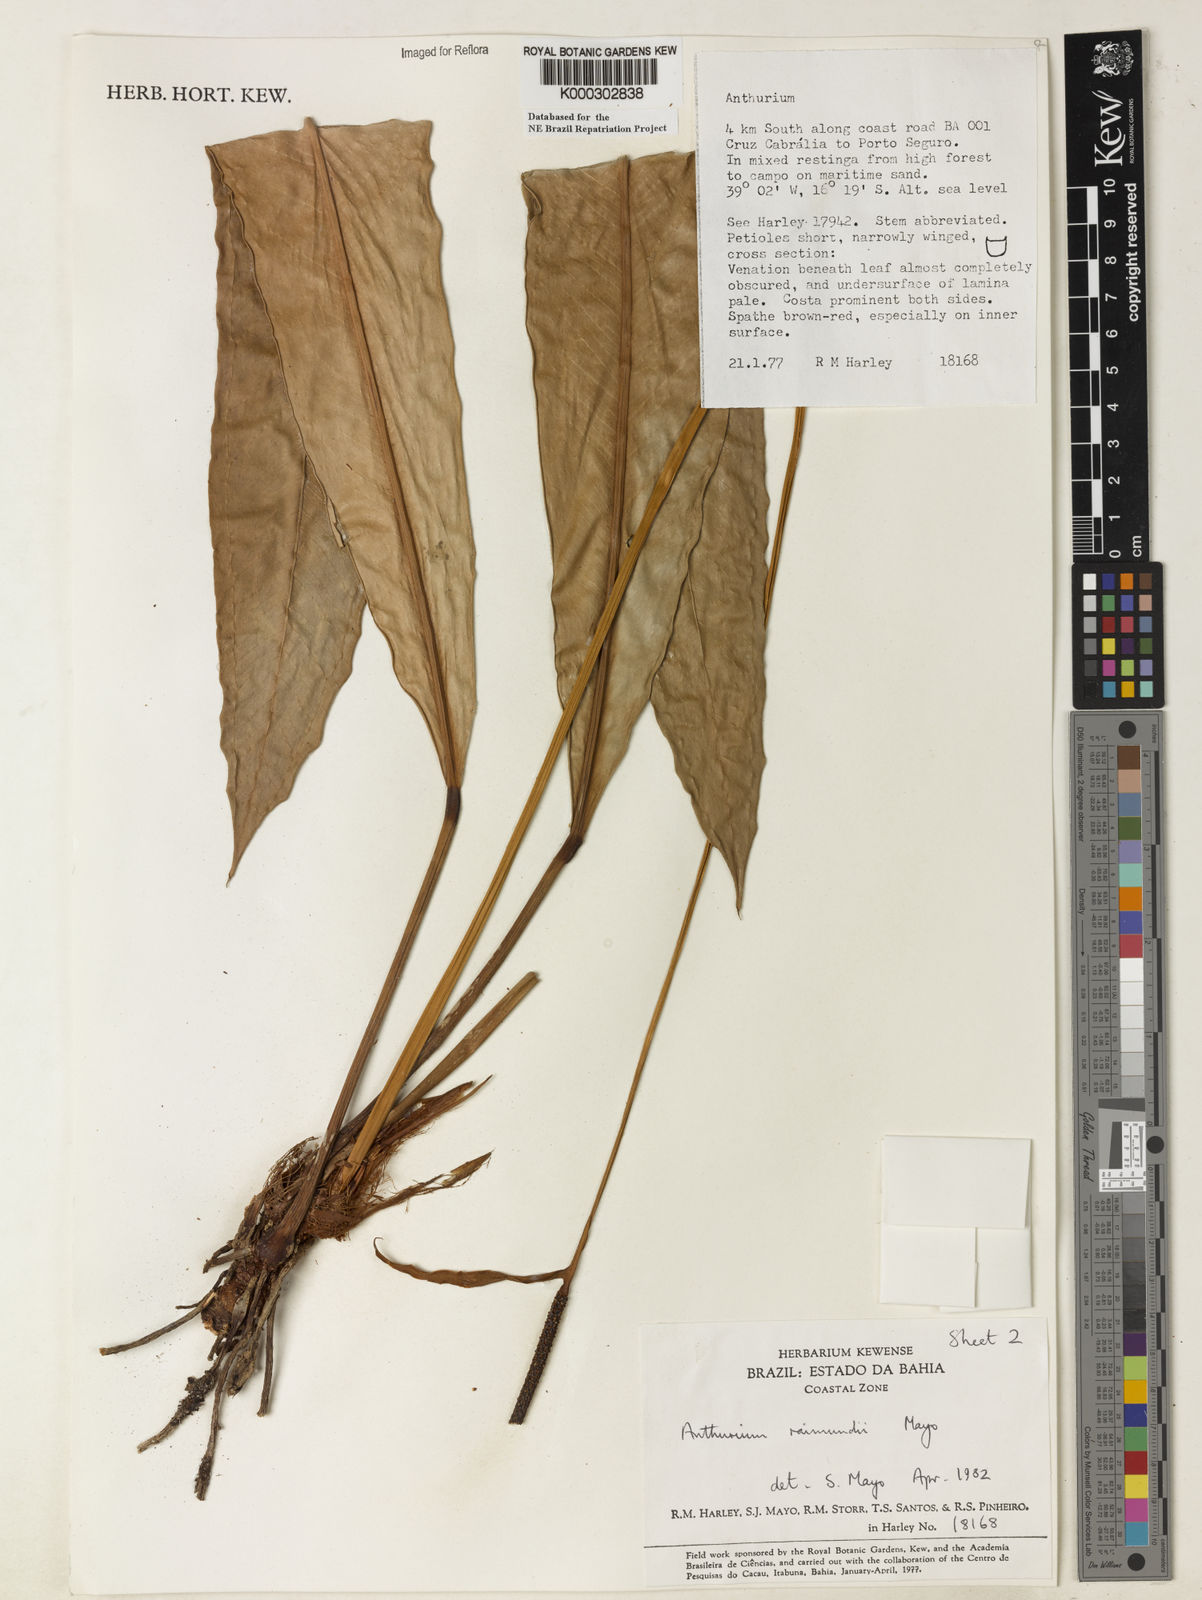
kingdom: Plantae
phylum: Tracheophyta
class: Liliopsida
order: Alismatales
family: Araceae
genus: Anthurium
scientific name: Anthurium raimundii
